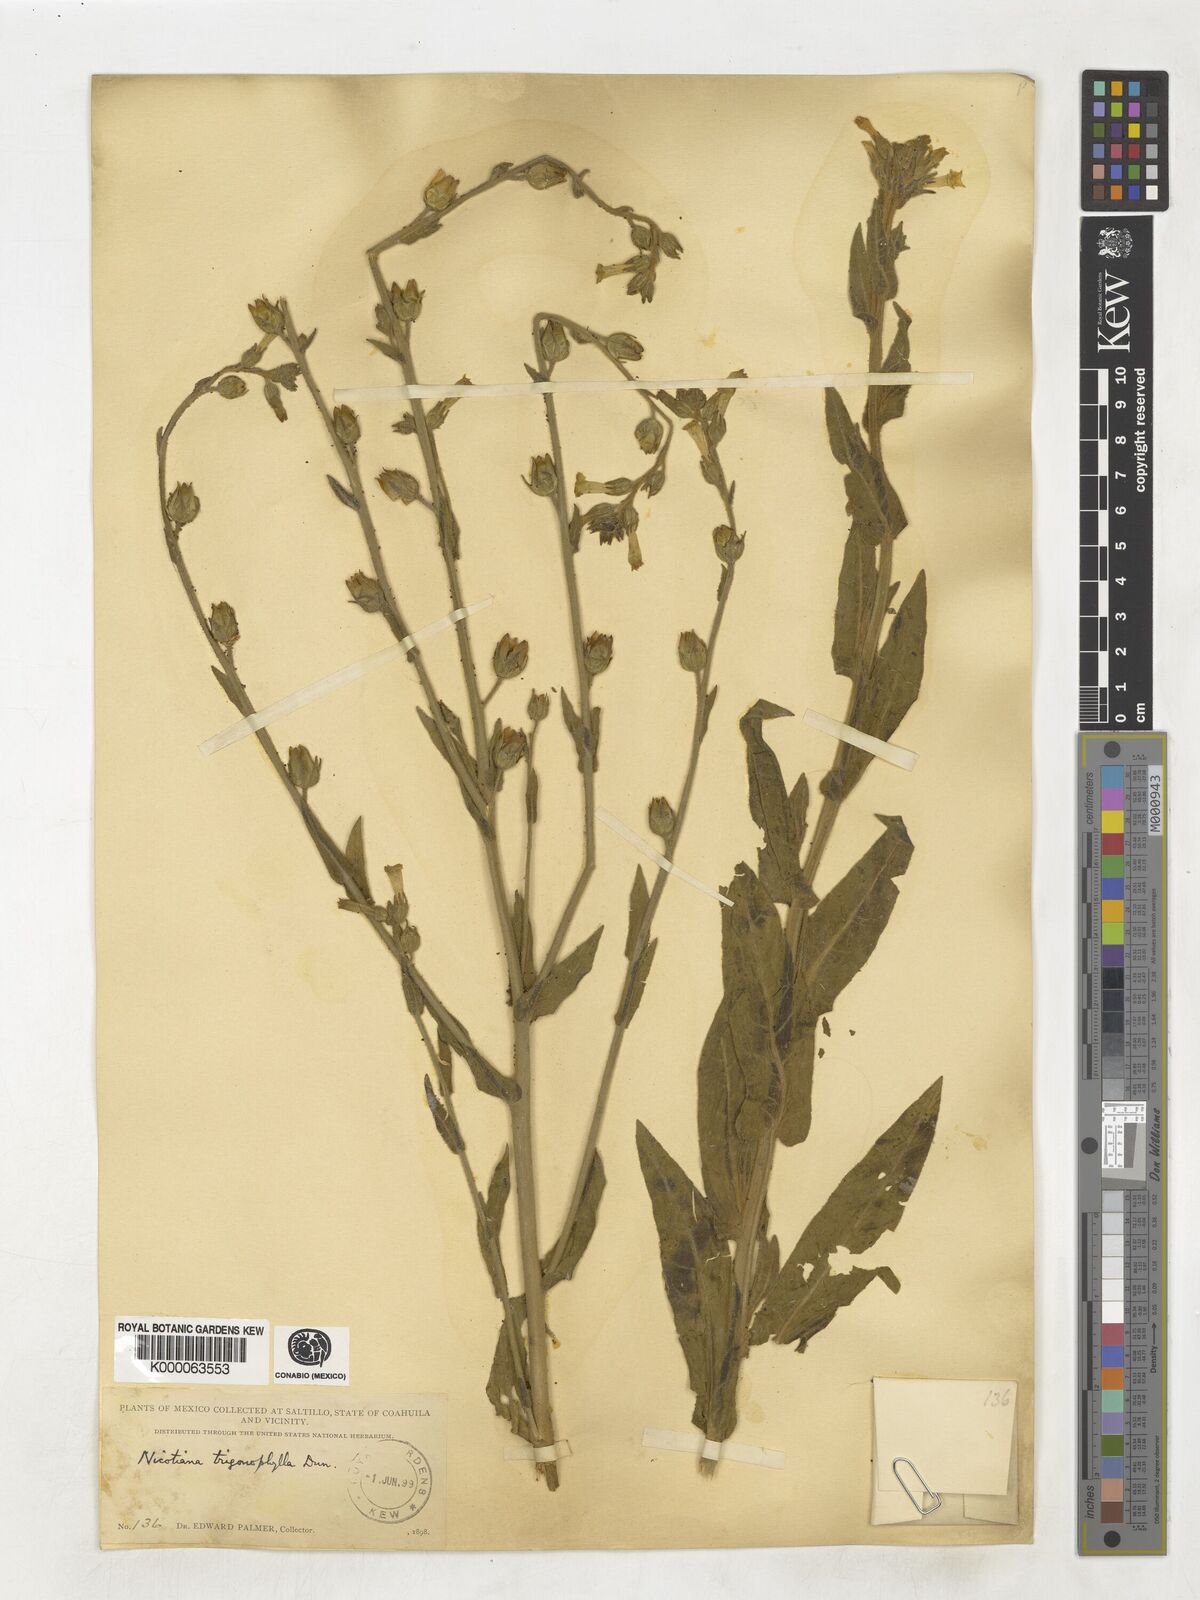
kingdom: Plantae
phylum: Tracheophyta
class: Magnoliopsida
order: Solanales
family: Solanaceae
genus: Nicotiana
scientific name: Nicotiana obtusifolia
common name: Desert tobacco
